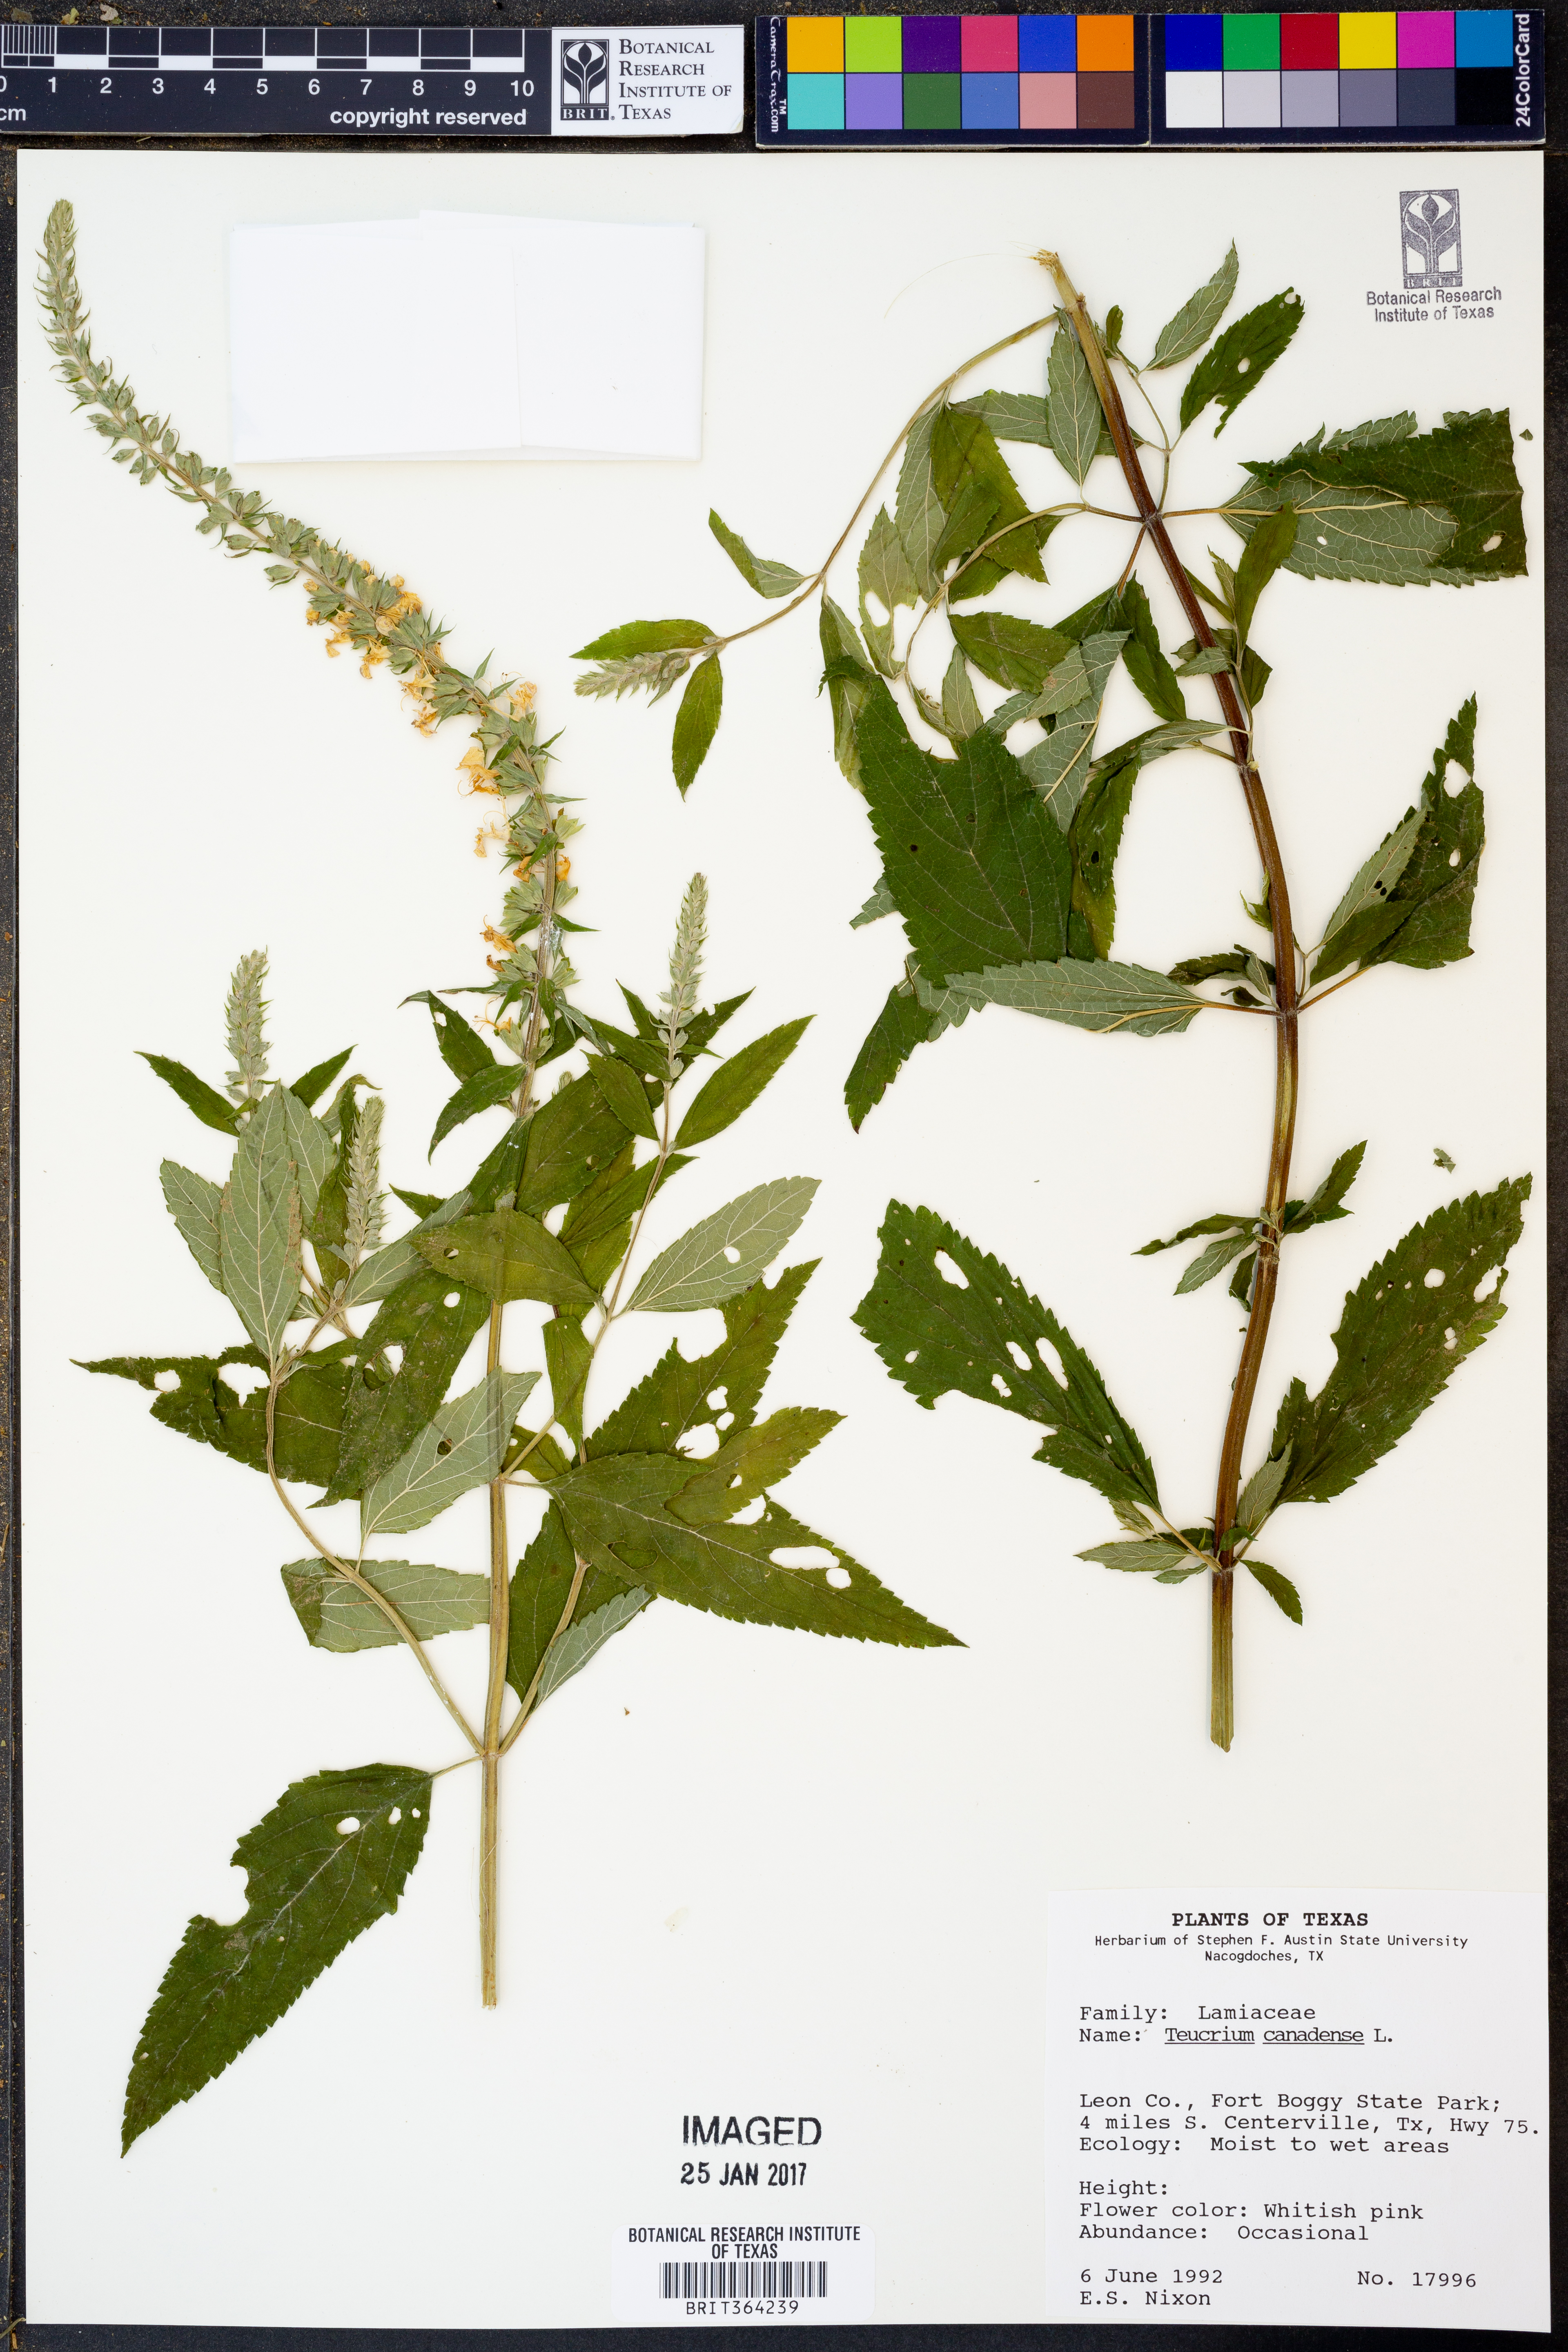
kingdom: Plantae
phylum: Tracheophyta
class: Magnoliopsida
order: Lamiales
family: Lamiaceae
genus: Teucrium
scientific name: Teucrium canadense
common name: American germander
